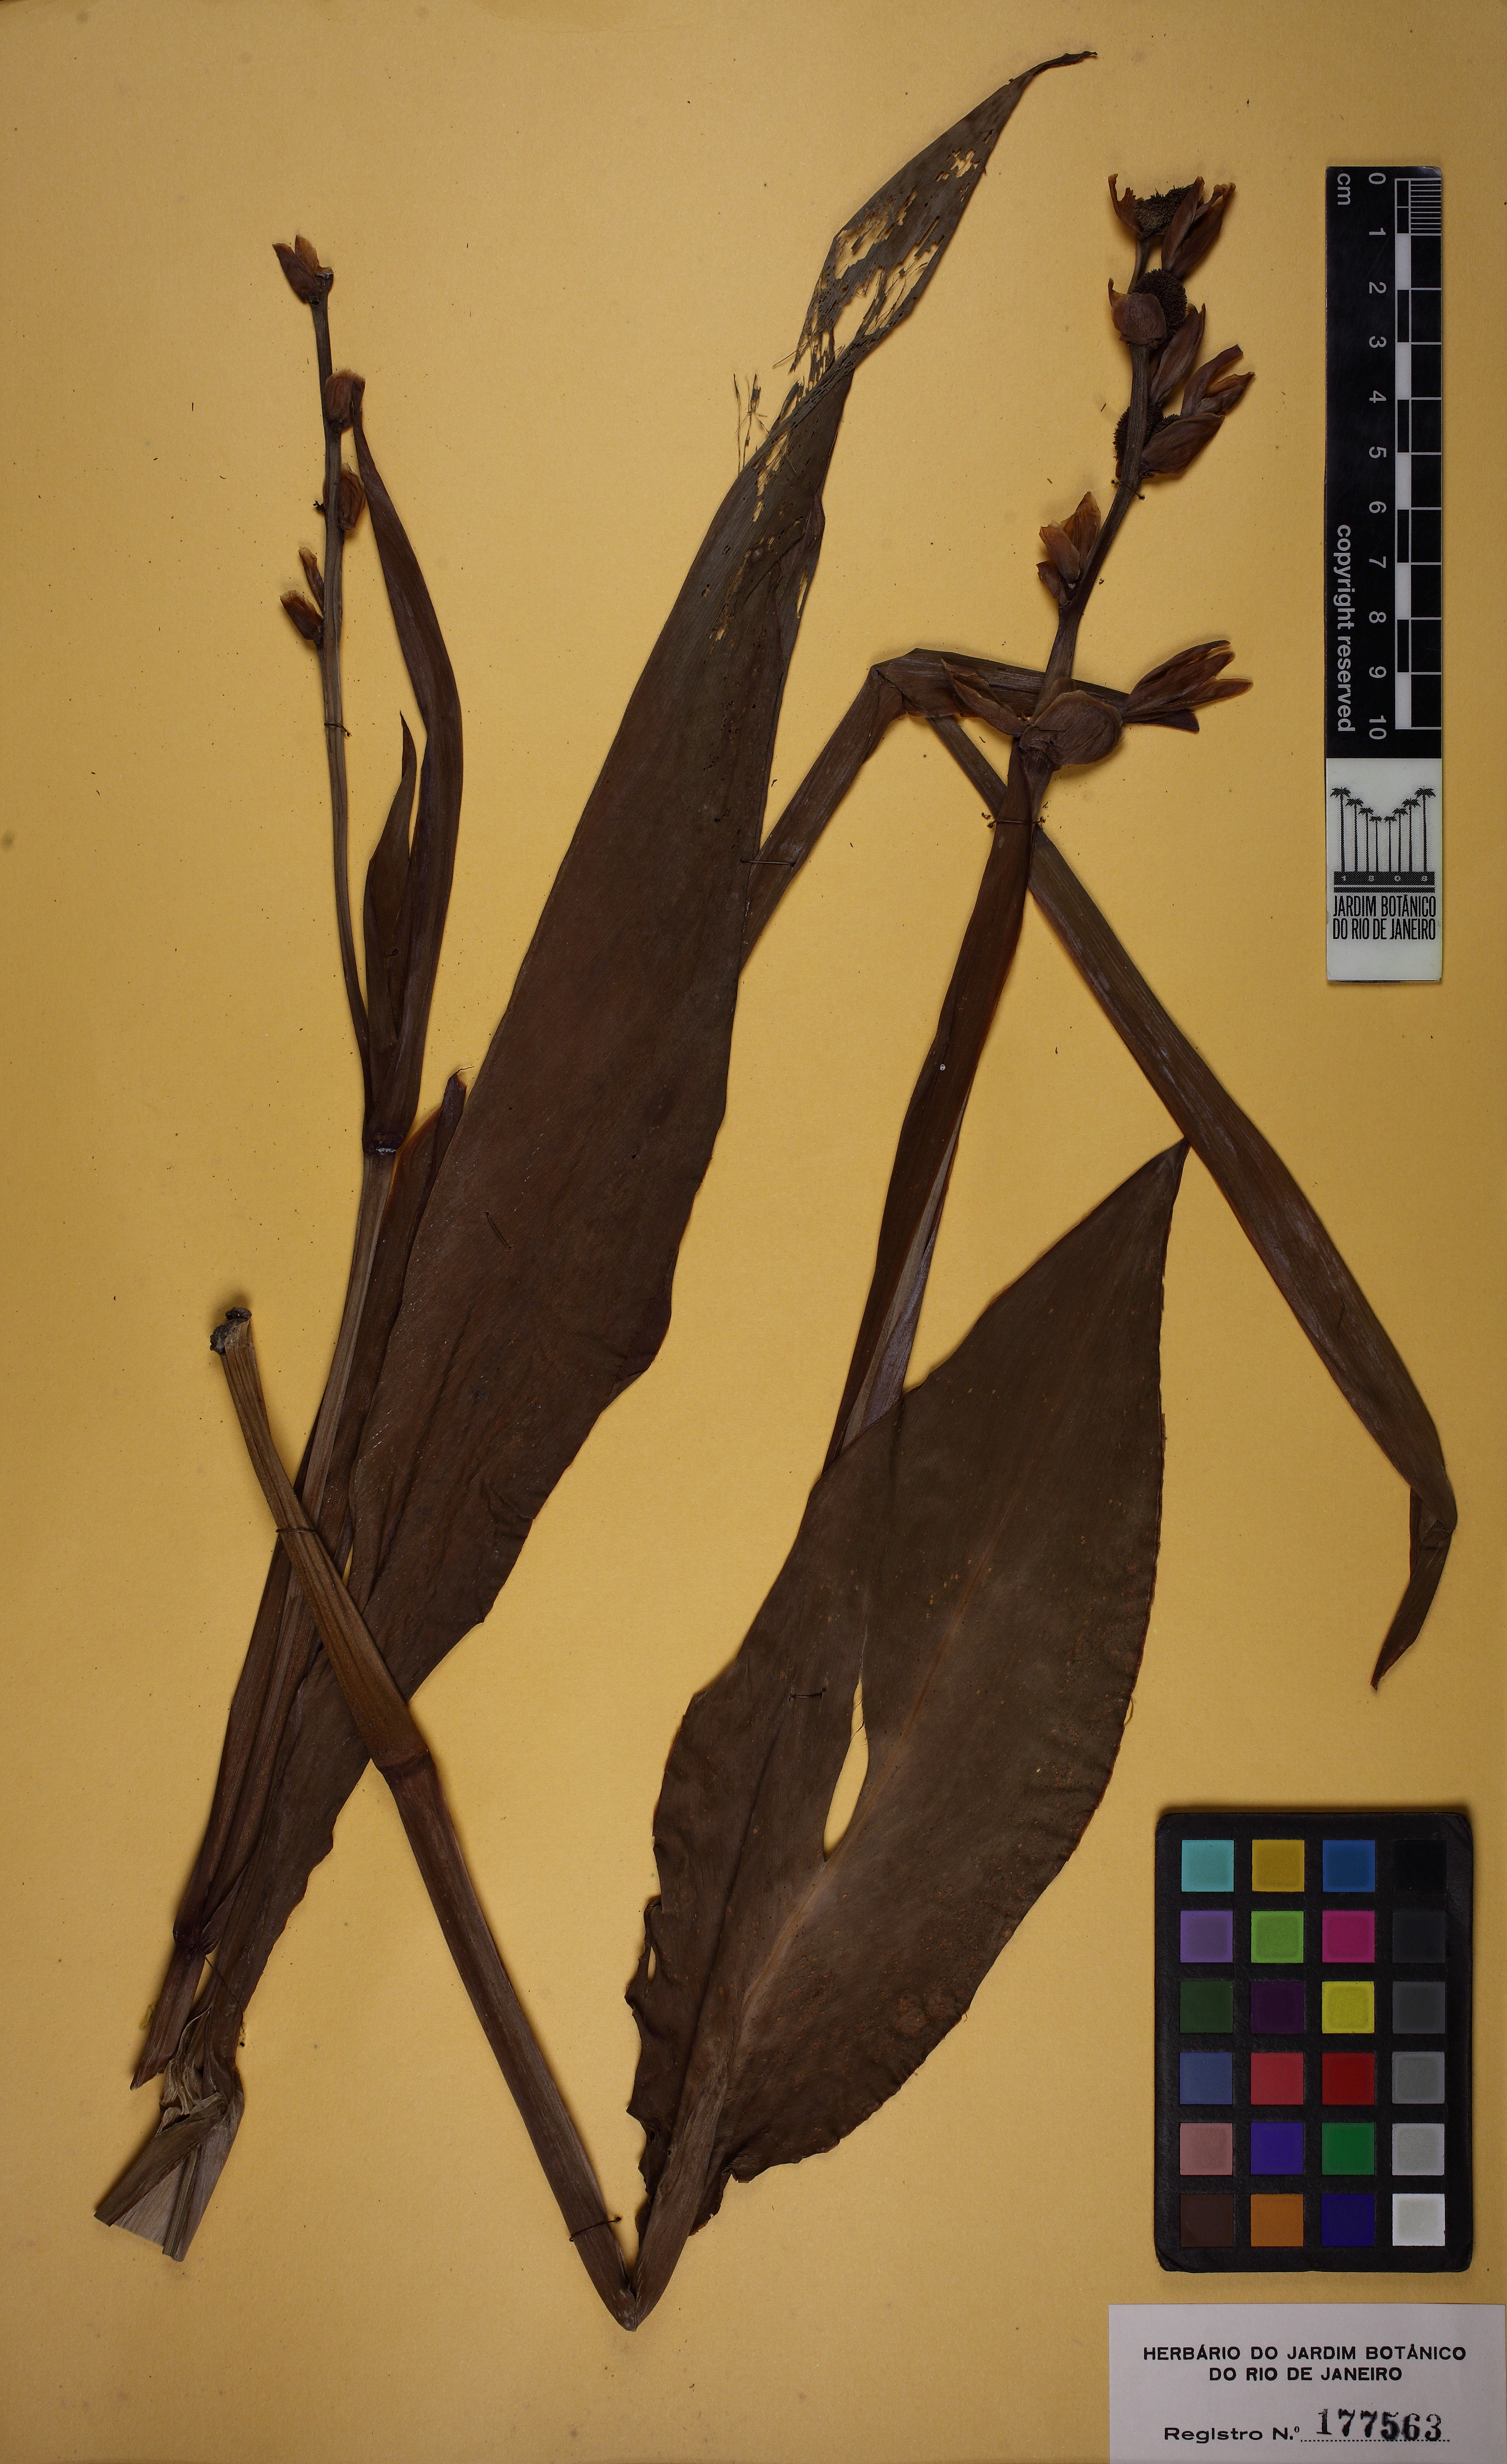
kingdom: Plantae
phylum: Tracheophyta
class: Liliopsida
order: Zingiberales
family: Cannaceae
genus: Canna
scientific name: Canna glauca
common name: Louisiana canna
